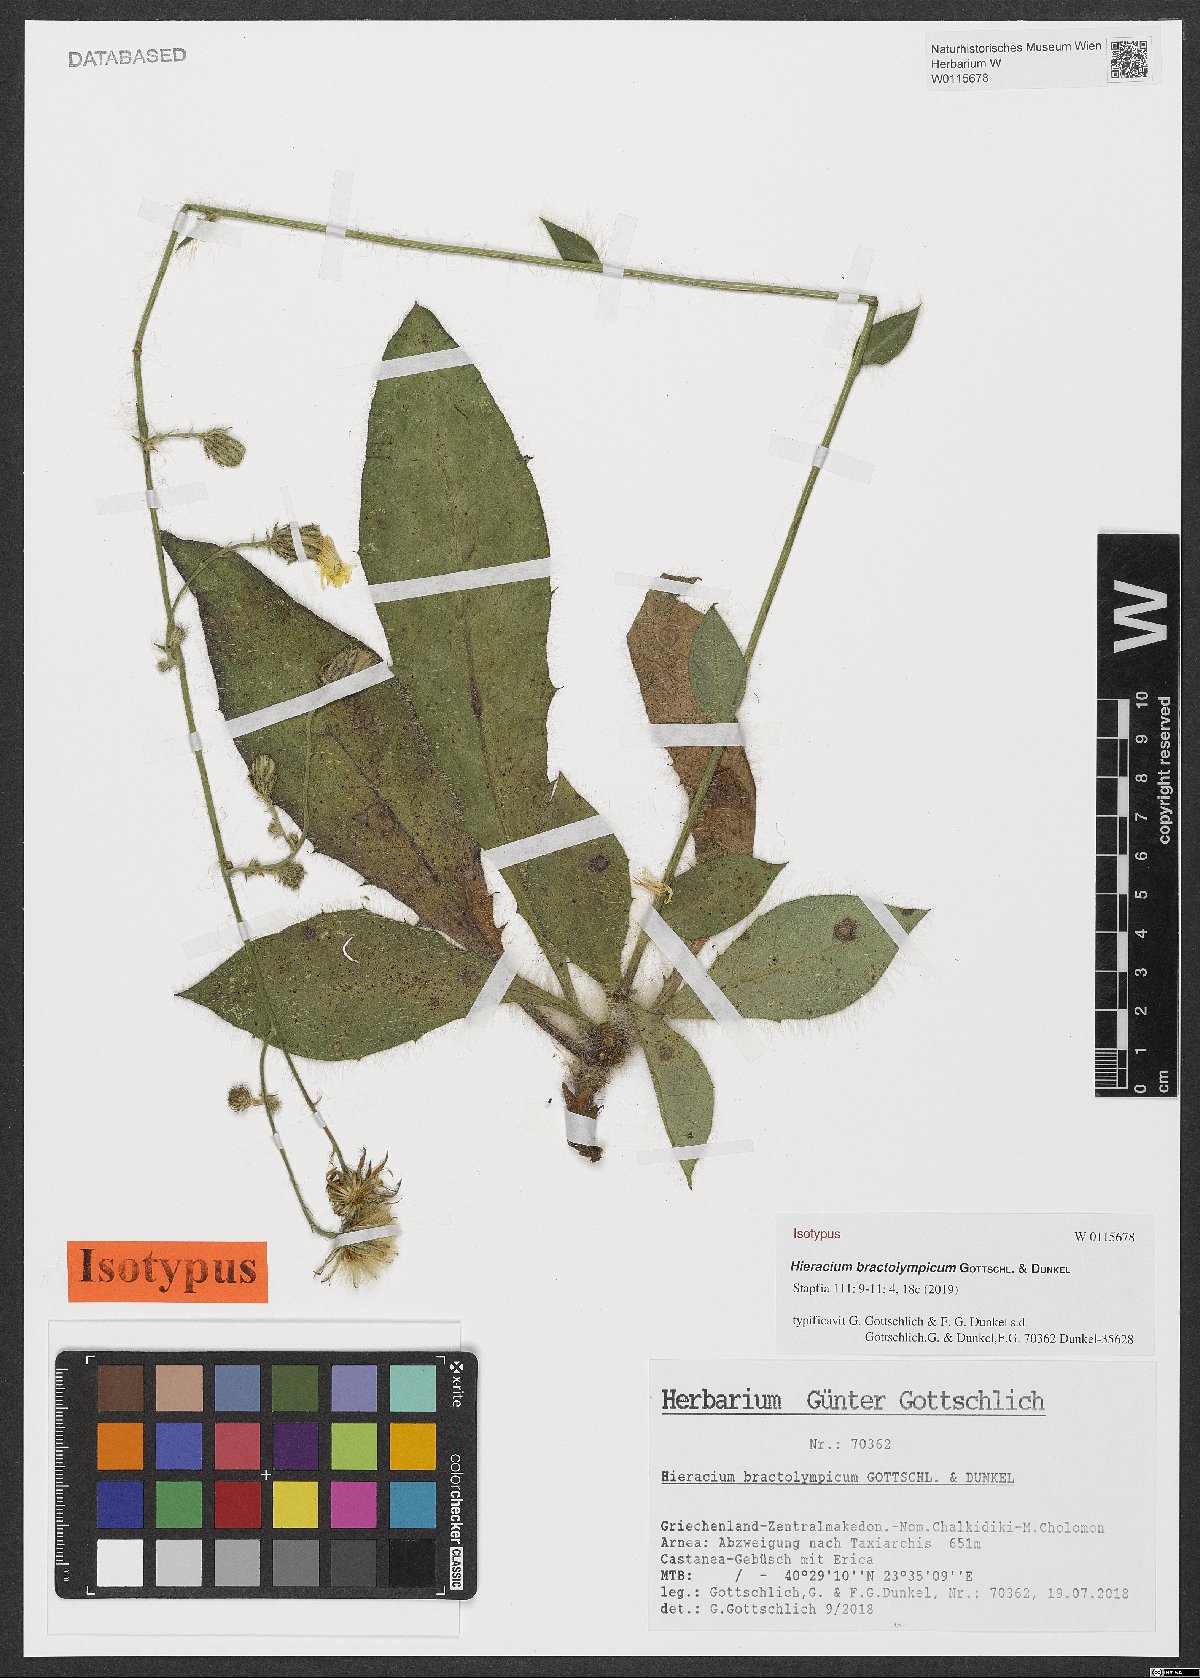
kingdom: Plantae
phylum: Tracheophyta
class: Magnoliopsida
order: Asterales
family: Asteraceae
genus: Hieracium
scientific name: Hieracium bractolympicum
